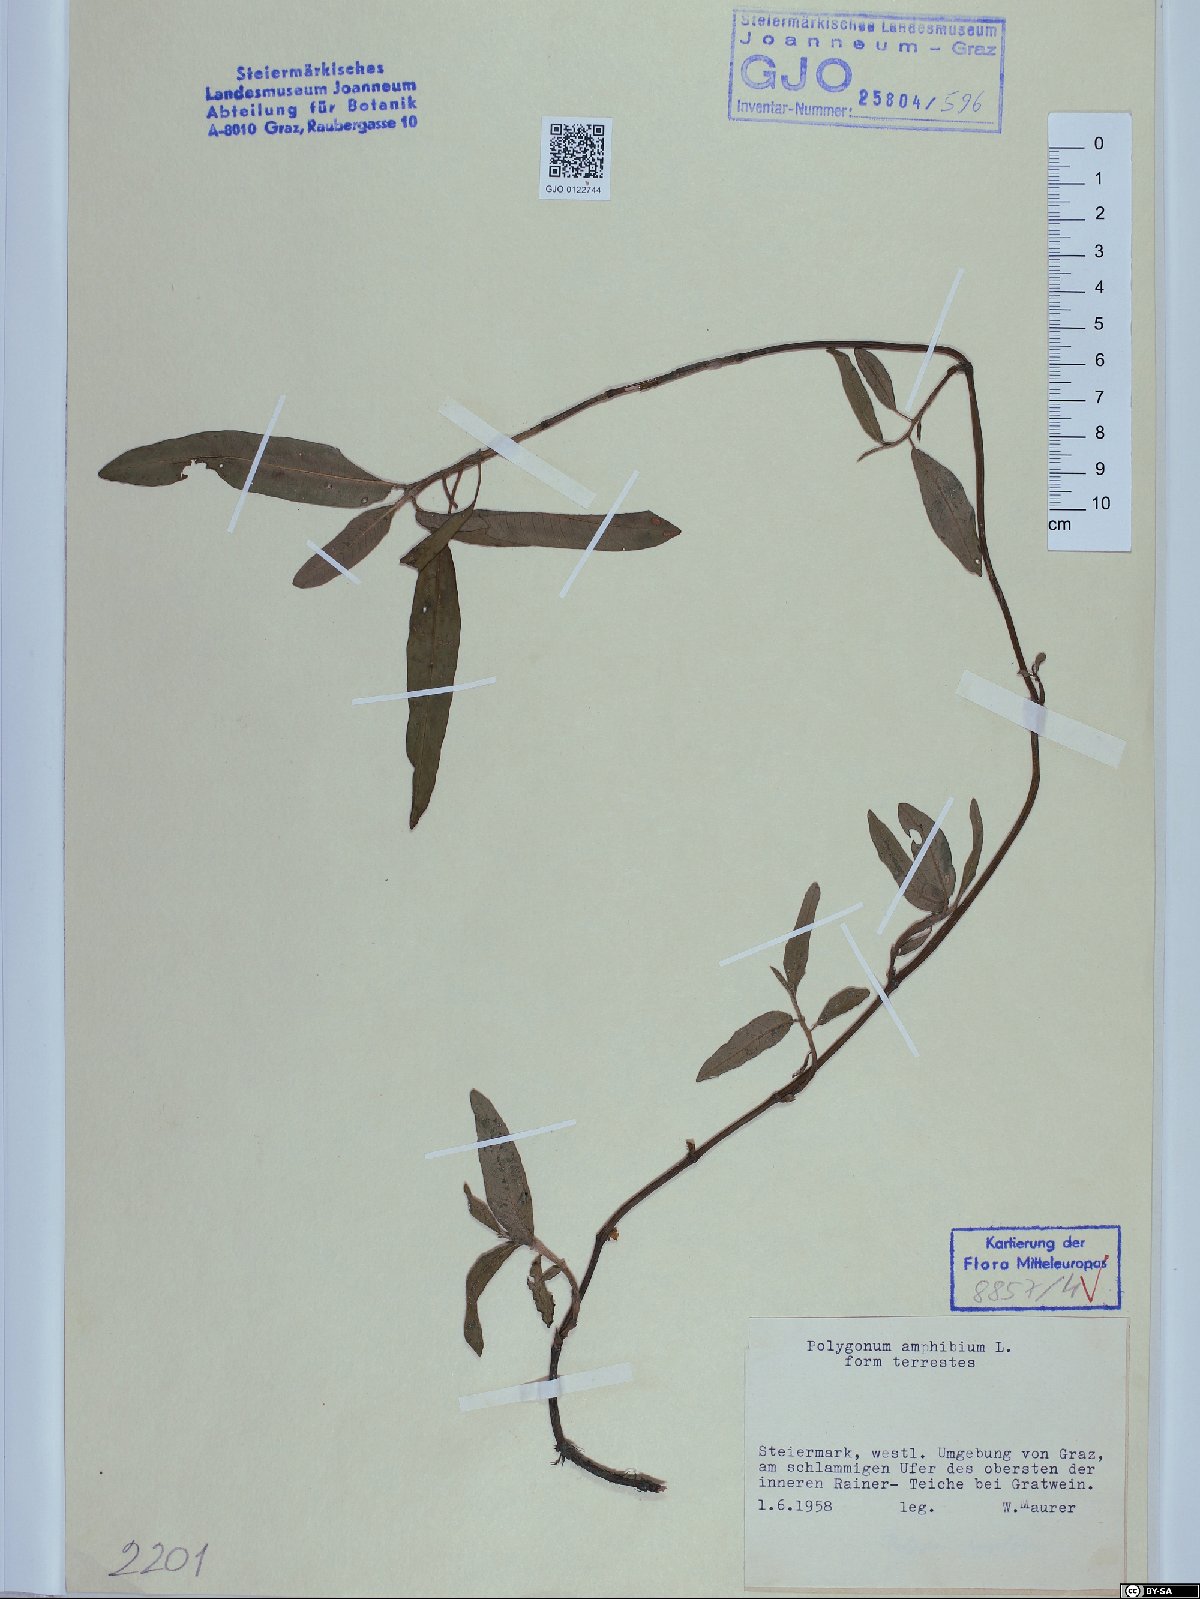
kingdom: Plantae
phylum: Tracheophyta
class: Magnoliopsida
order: Caryophyllales
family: Polygonaceae
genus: Persicaria
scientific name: Persicaria amphibia
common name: Amphibious bistort
